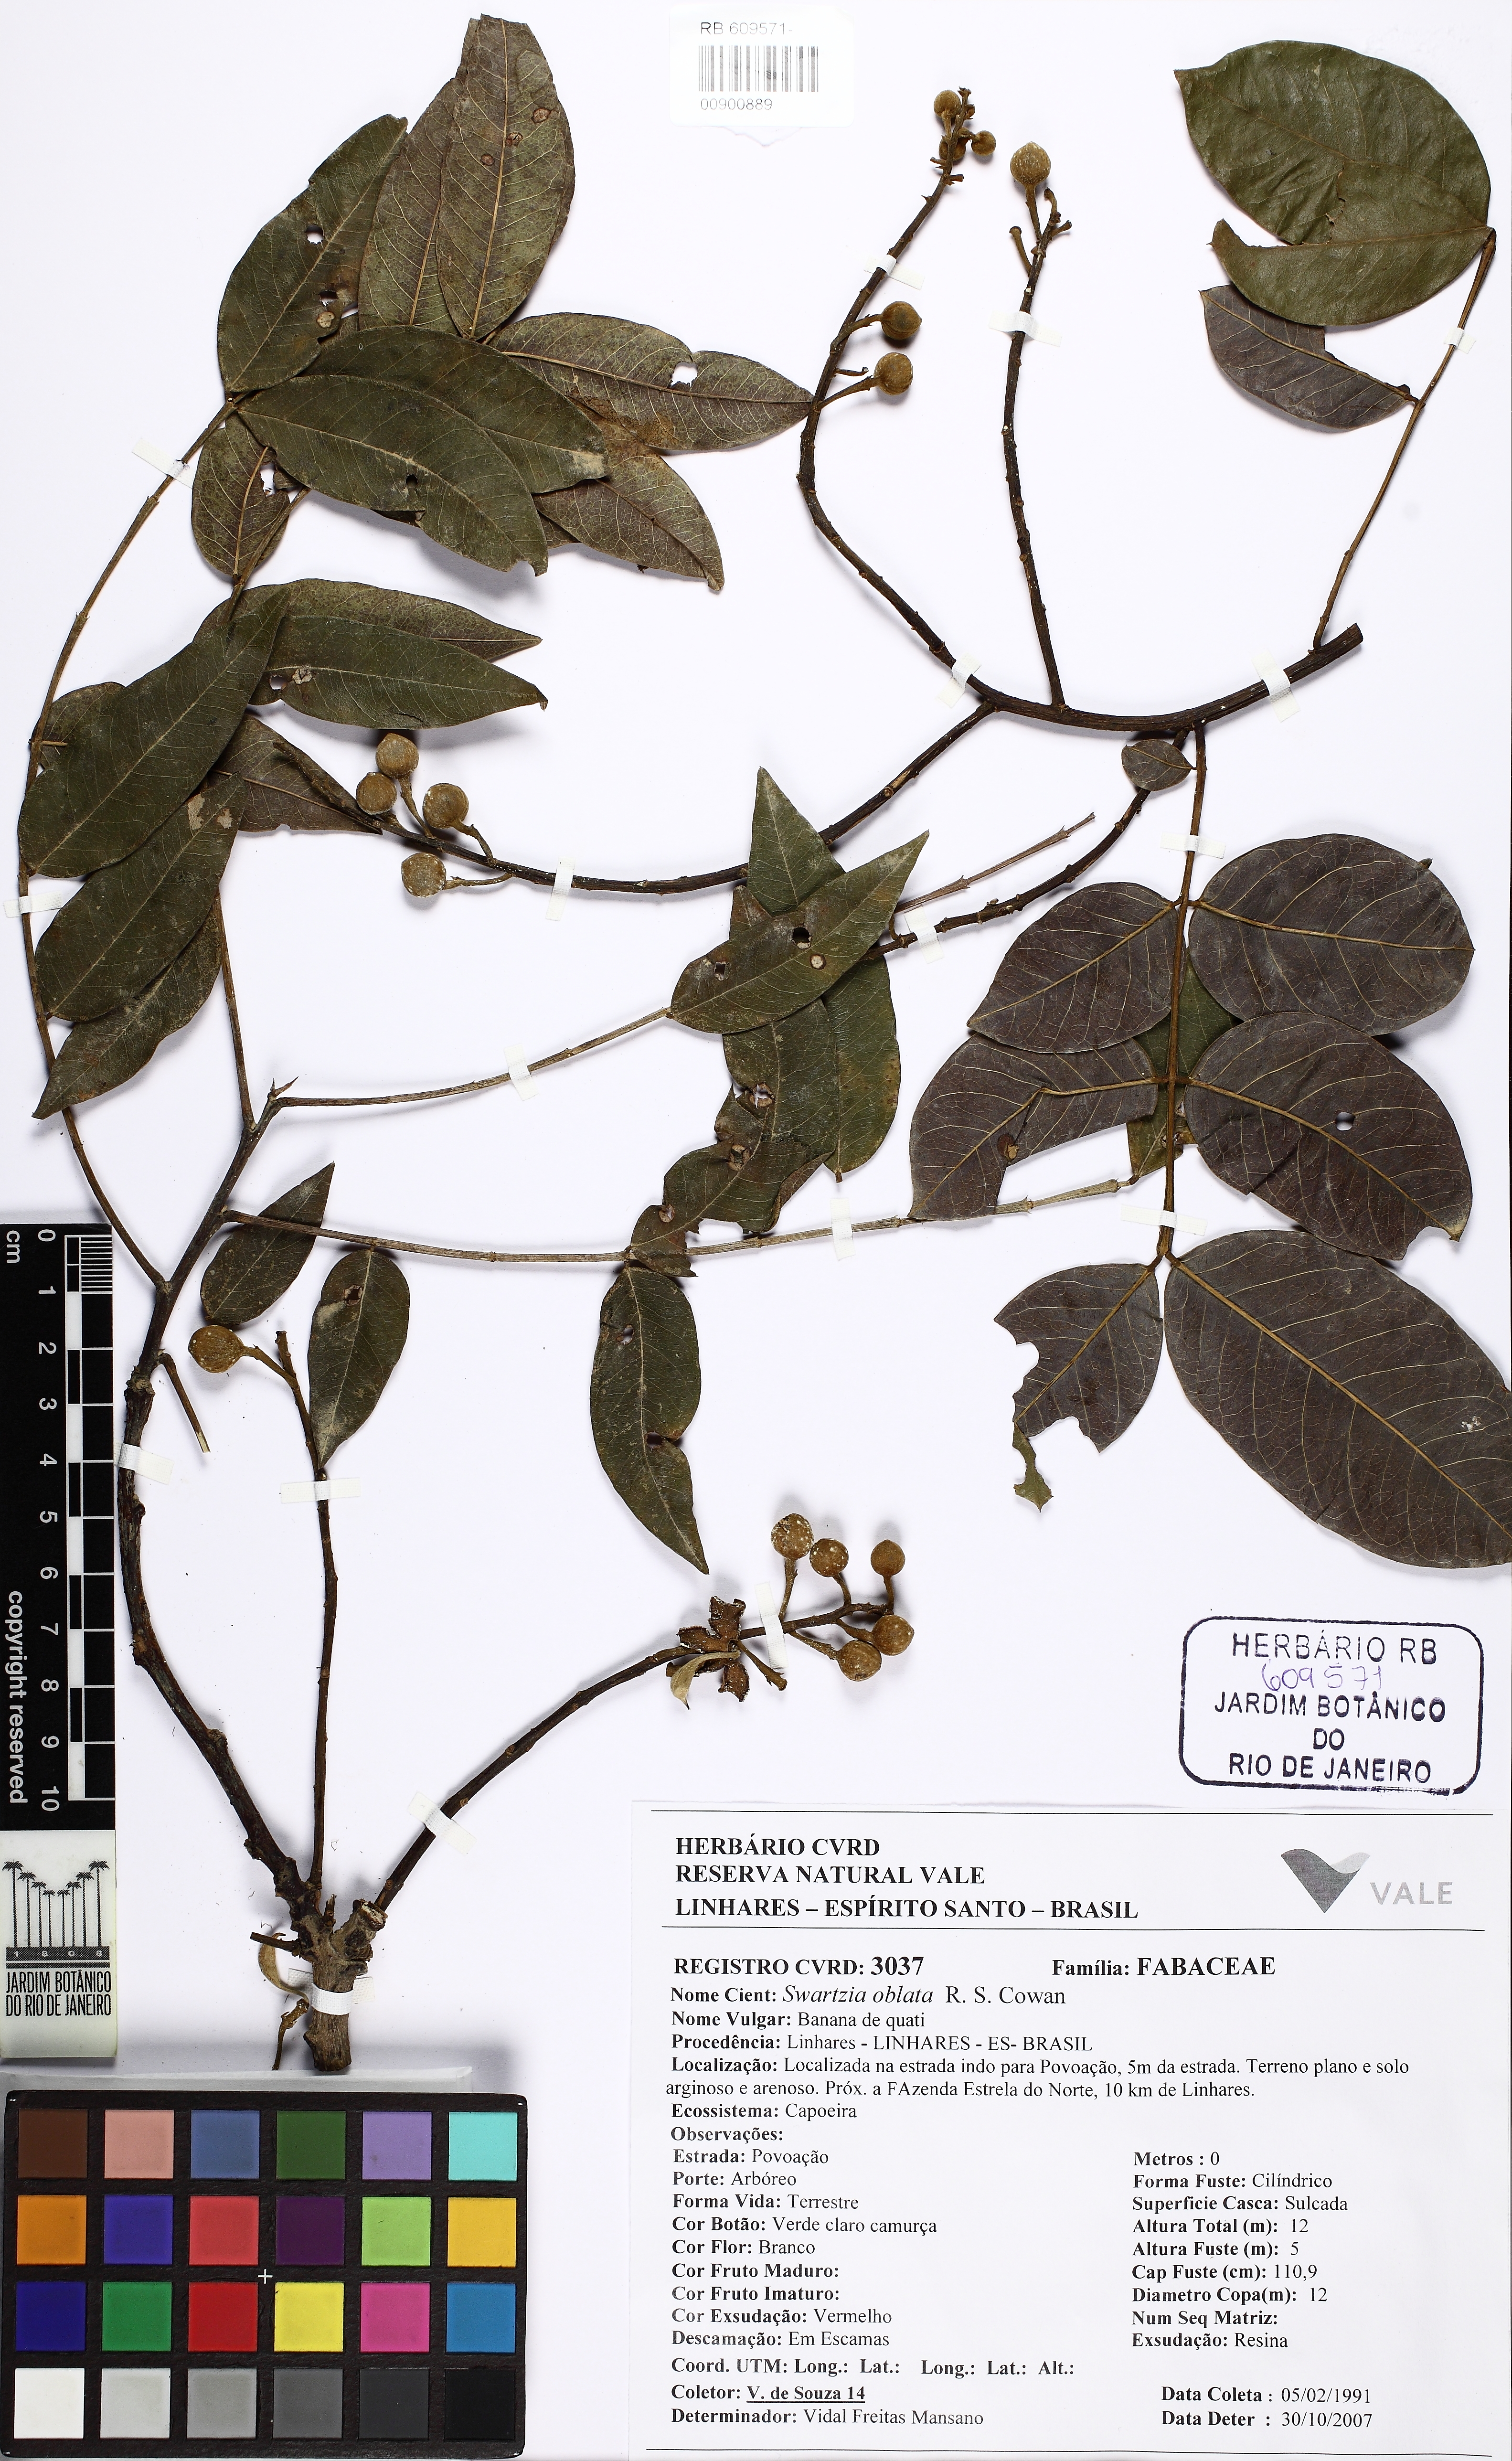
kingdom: Plantae
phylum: Tracheophyta
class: Magnoliopsida
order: Fabales
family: Fabaceae
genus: Swartzia
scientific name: Swartzia oblata
